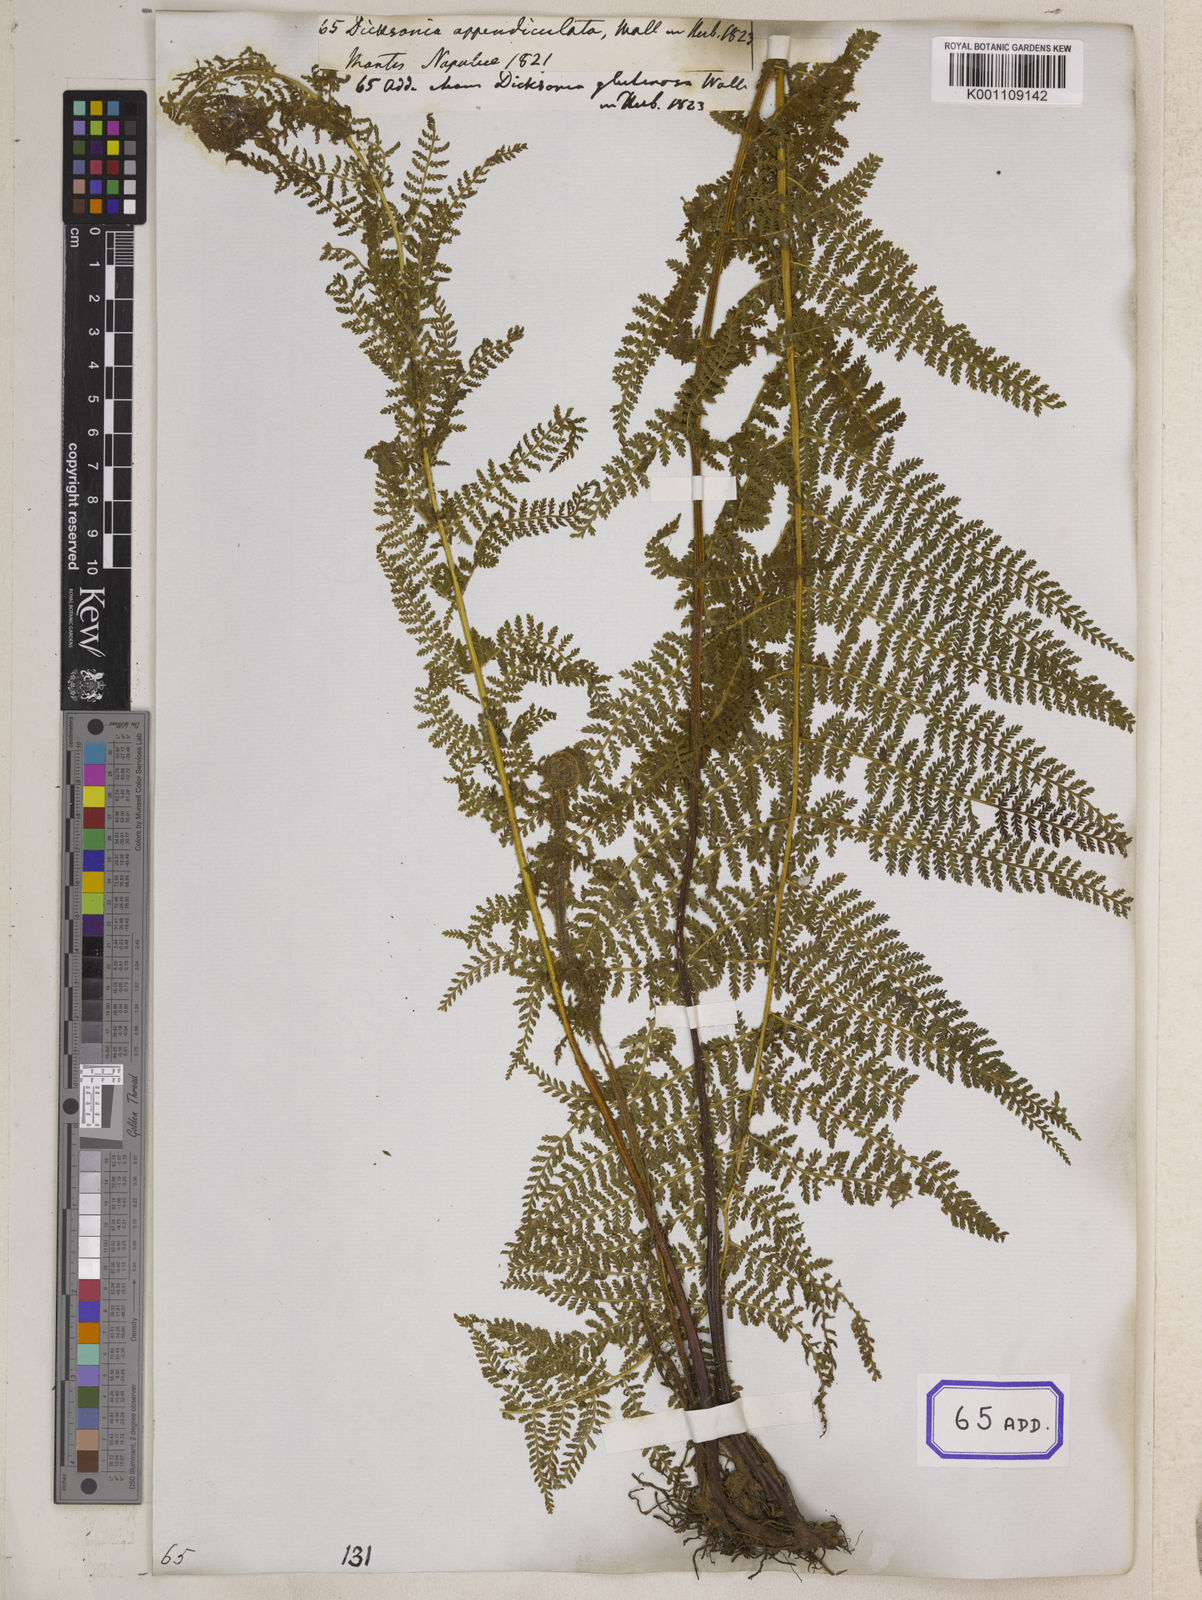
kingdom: Plantae
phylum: Tracheophyta
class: Polypodiopsida
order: Polypodiales
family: Dennstaedtiaceae
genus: Sitobolium
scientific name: Sitobolium appendiculatum
